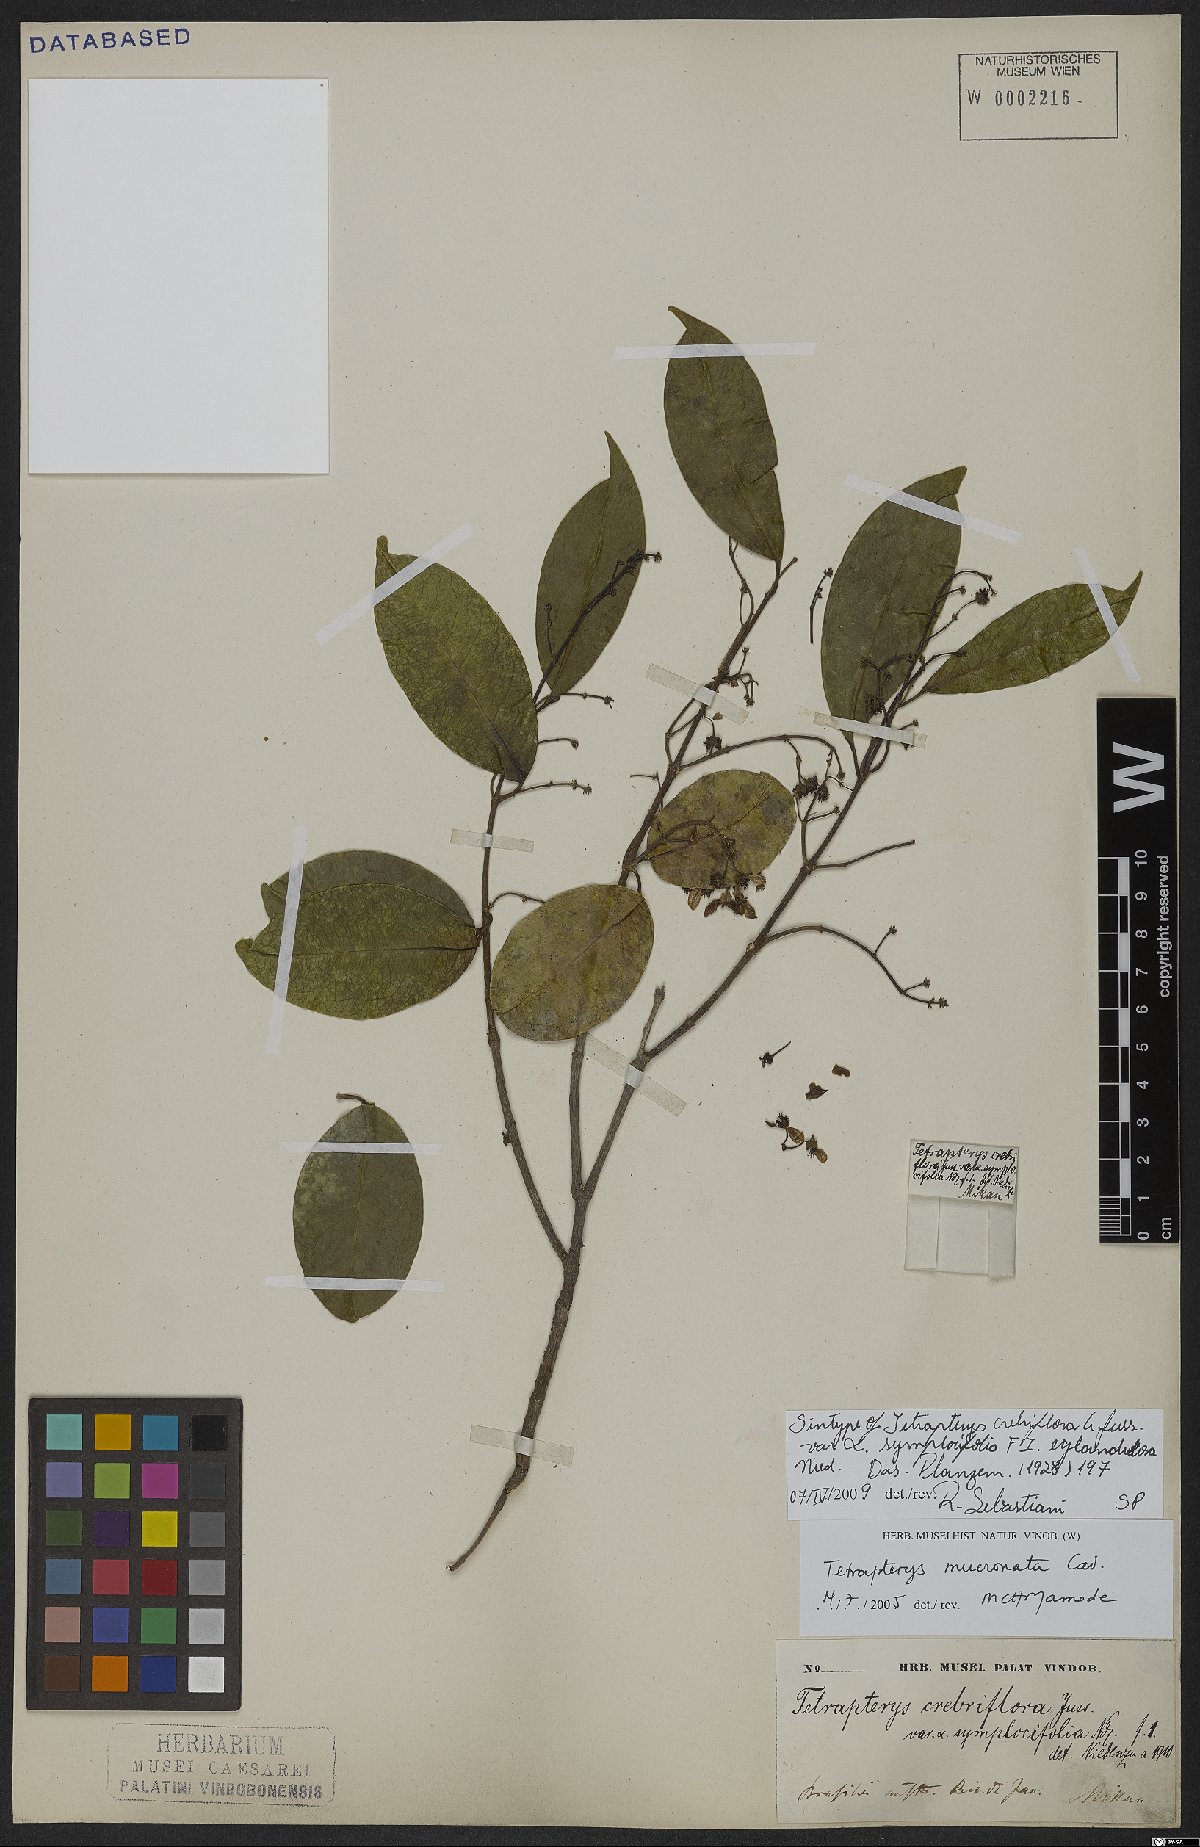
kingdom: Plantae
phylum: Tracheophyta
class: Magnoliopsida
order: Malpighiales
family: Malpighiaceae
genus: Tetrapterys
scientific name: Tetrapterys mucronata
